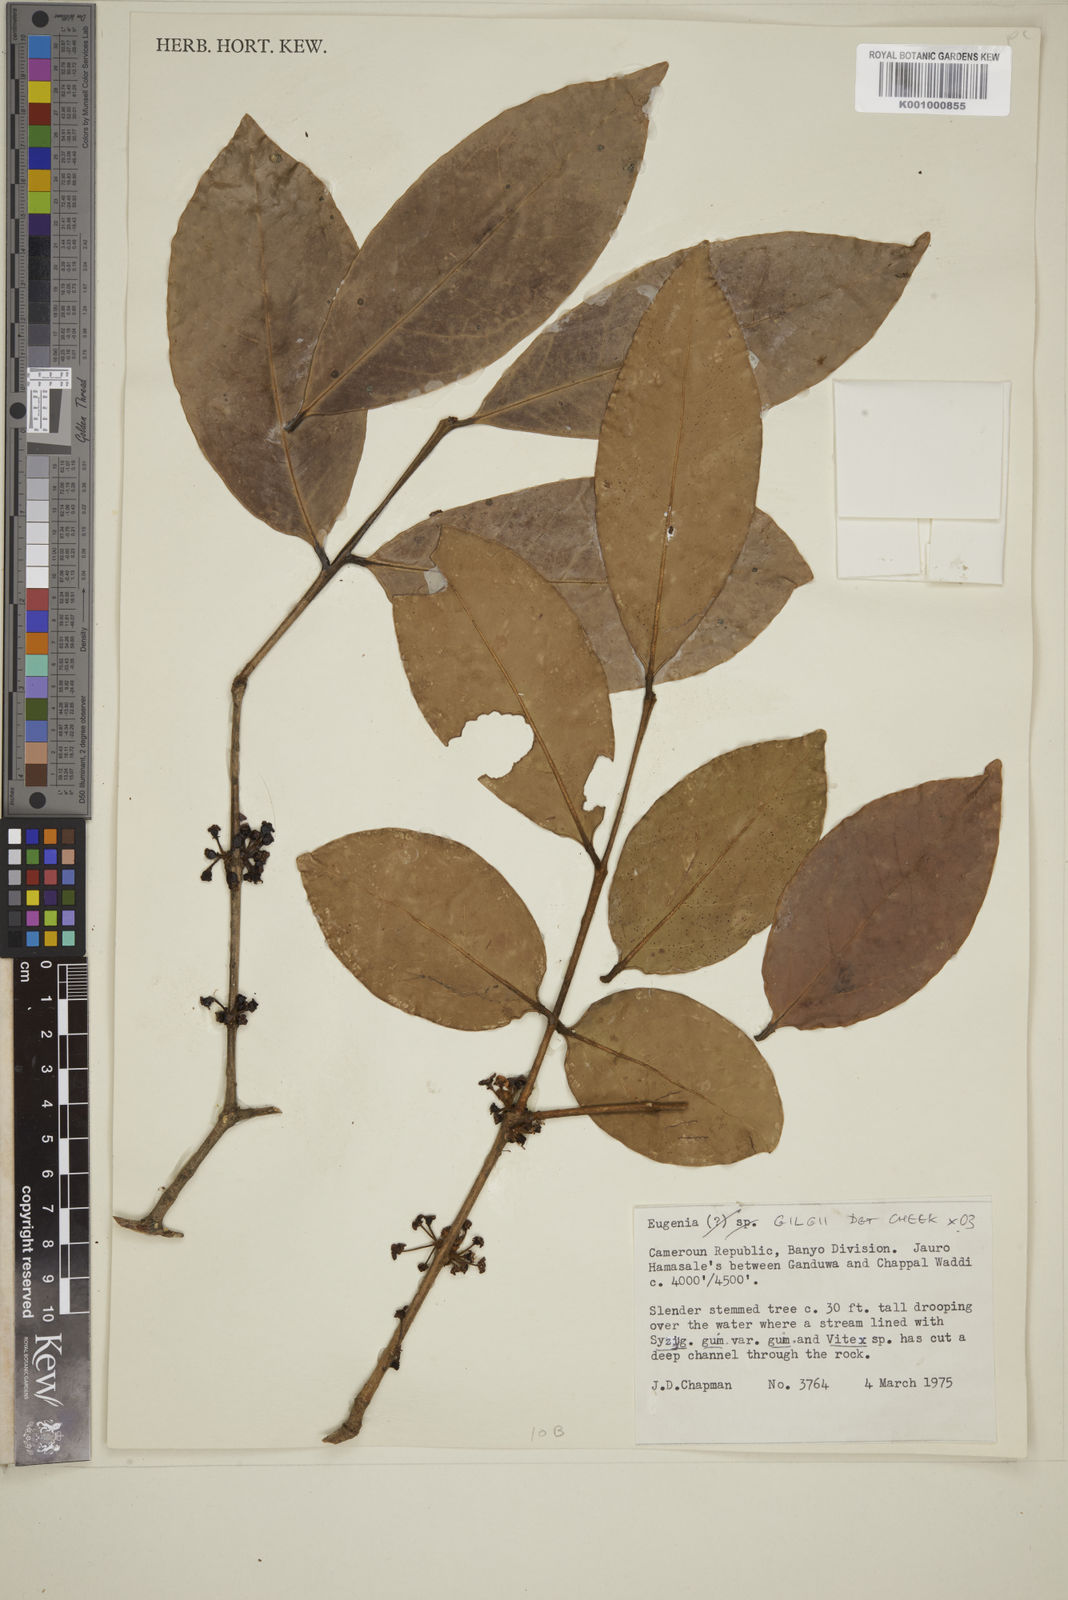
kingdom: Plantae
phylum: Tracheophyta
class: Magnoliopsida
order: Myrtales
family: Myrtaceae
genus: Eugenia
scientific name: Eugenia gilgii
